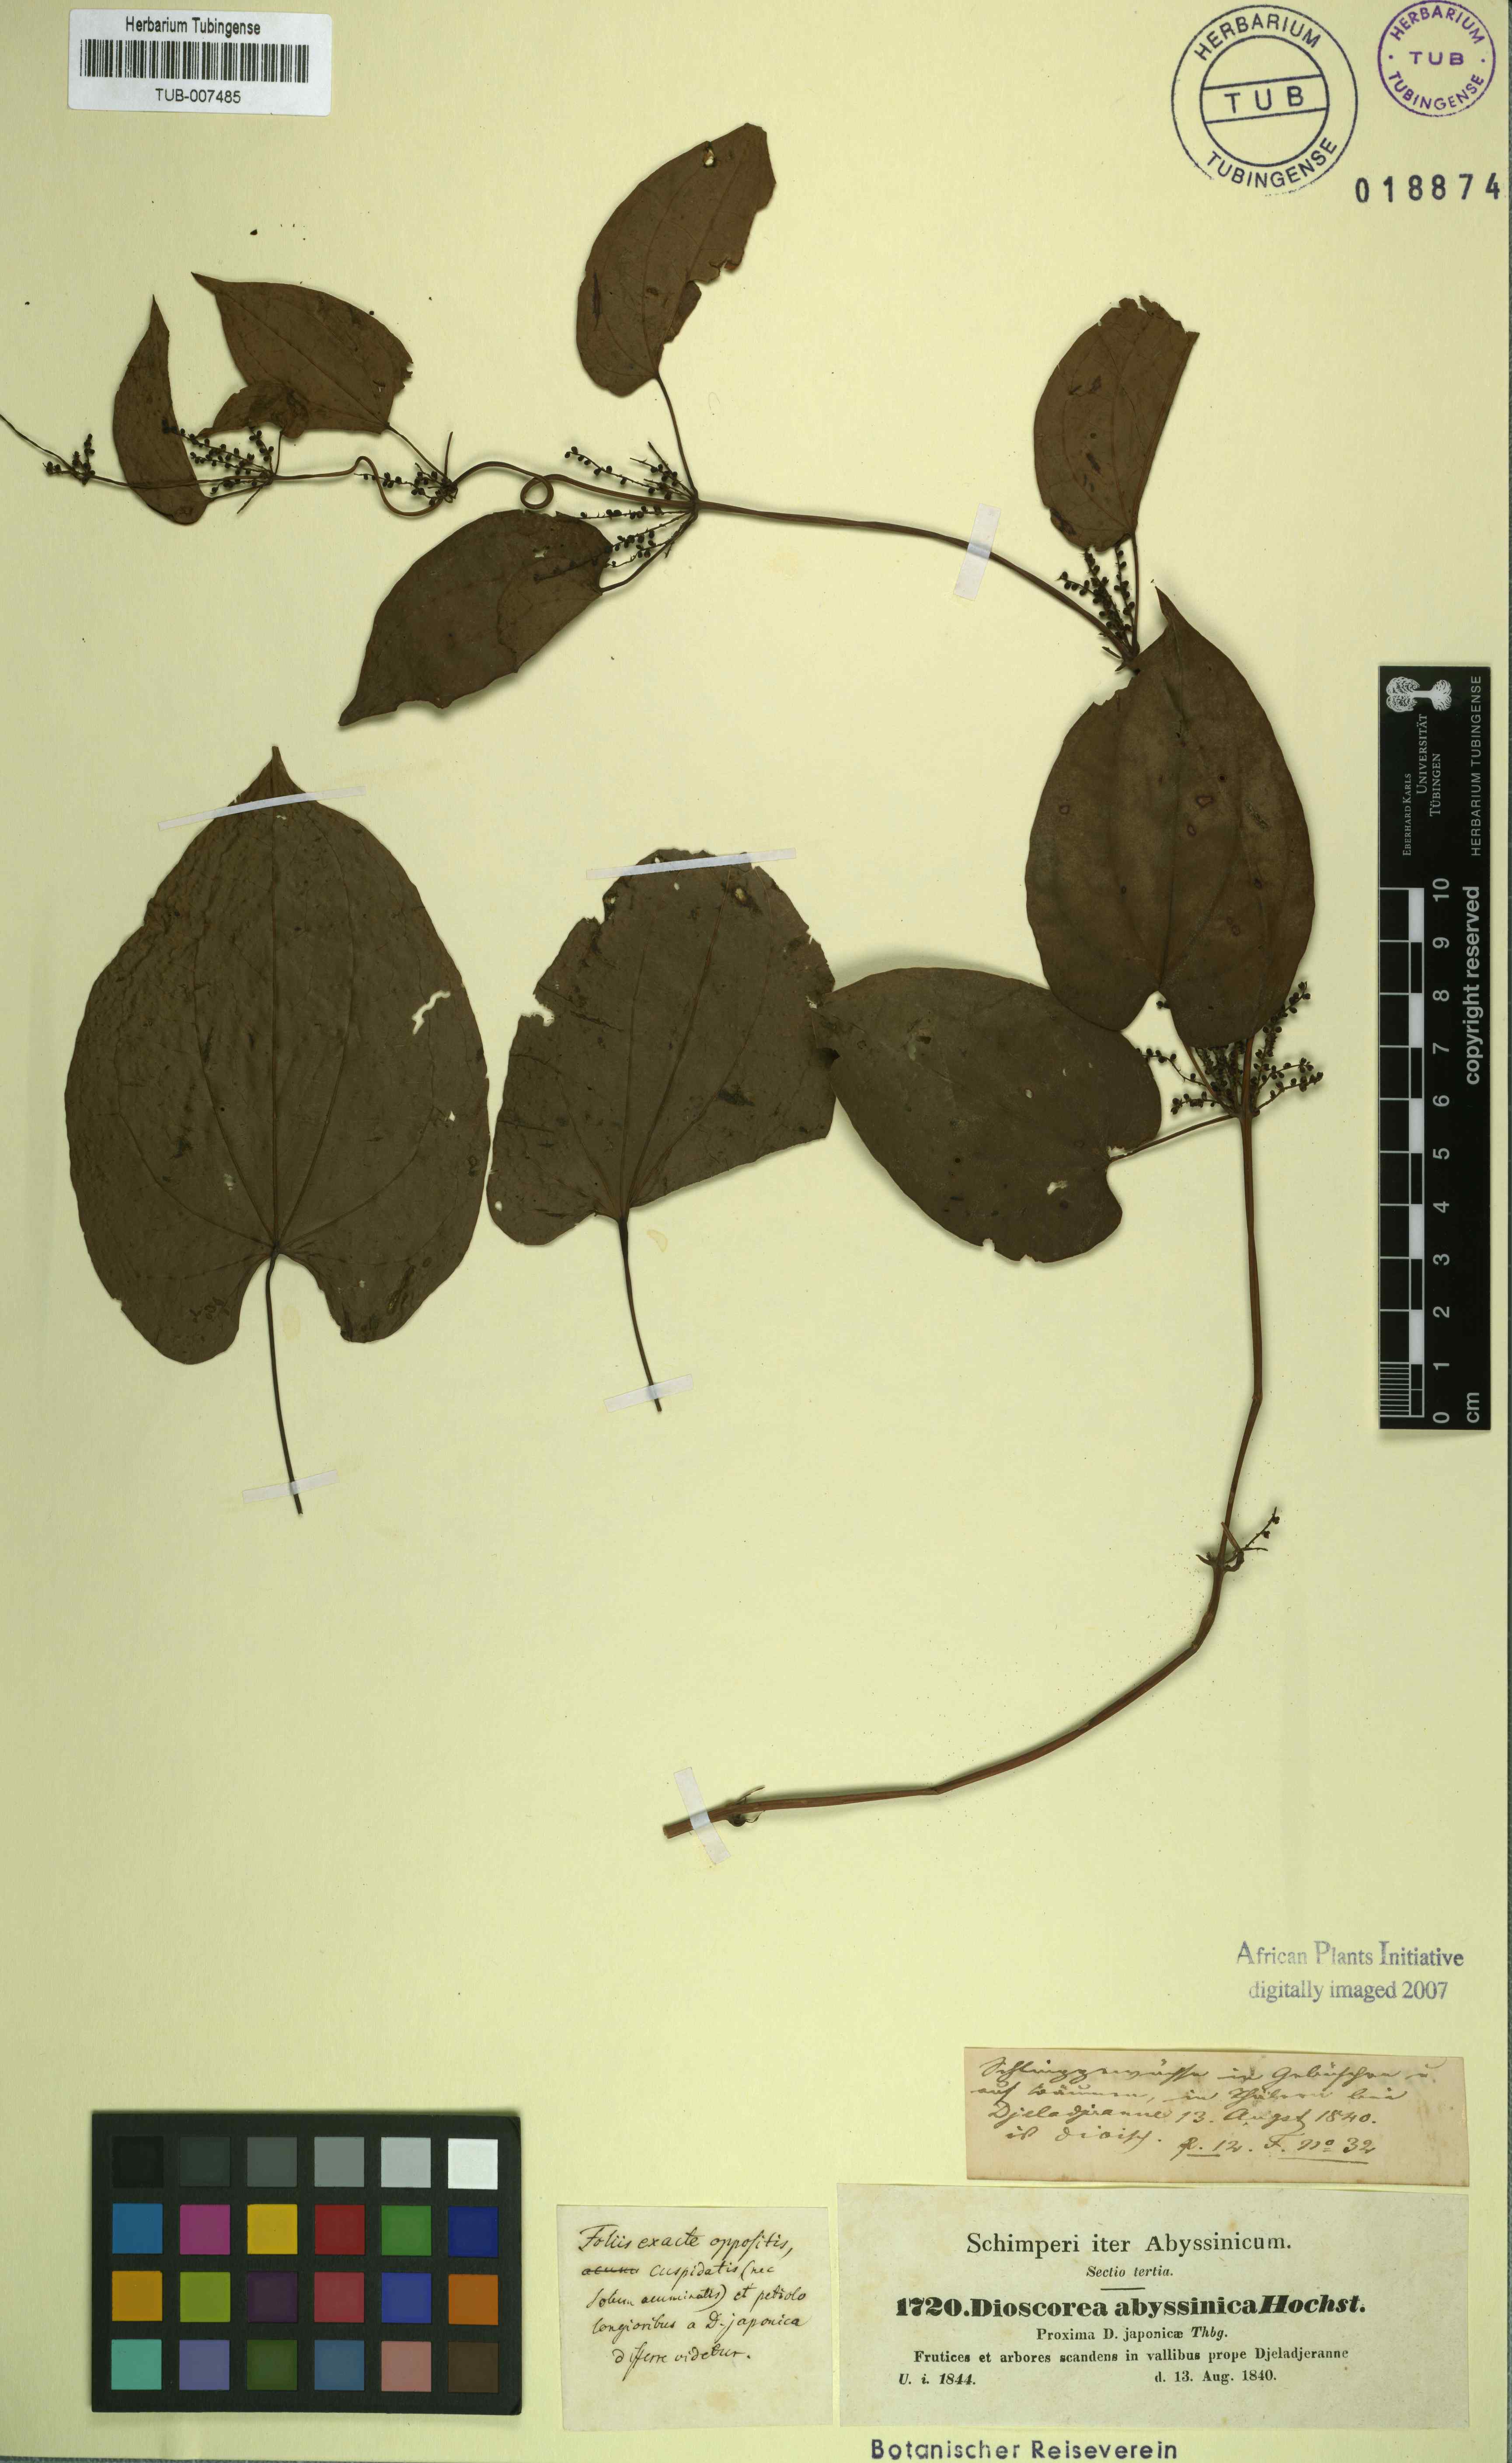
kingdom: Plantae
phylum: Tracheophyta
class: Liliopsida
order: Dioscoreales
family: Dioscoreaceae
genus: Dioscorea
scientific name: Dioscorea abyssinica
